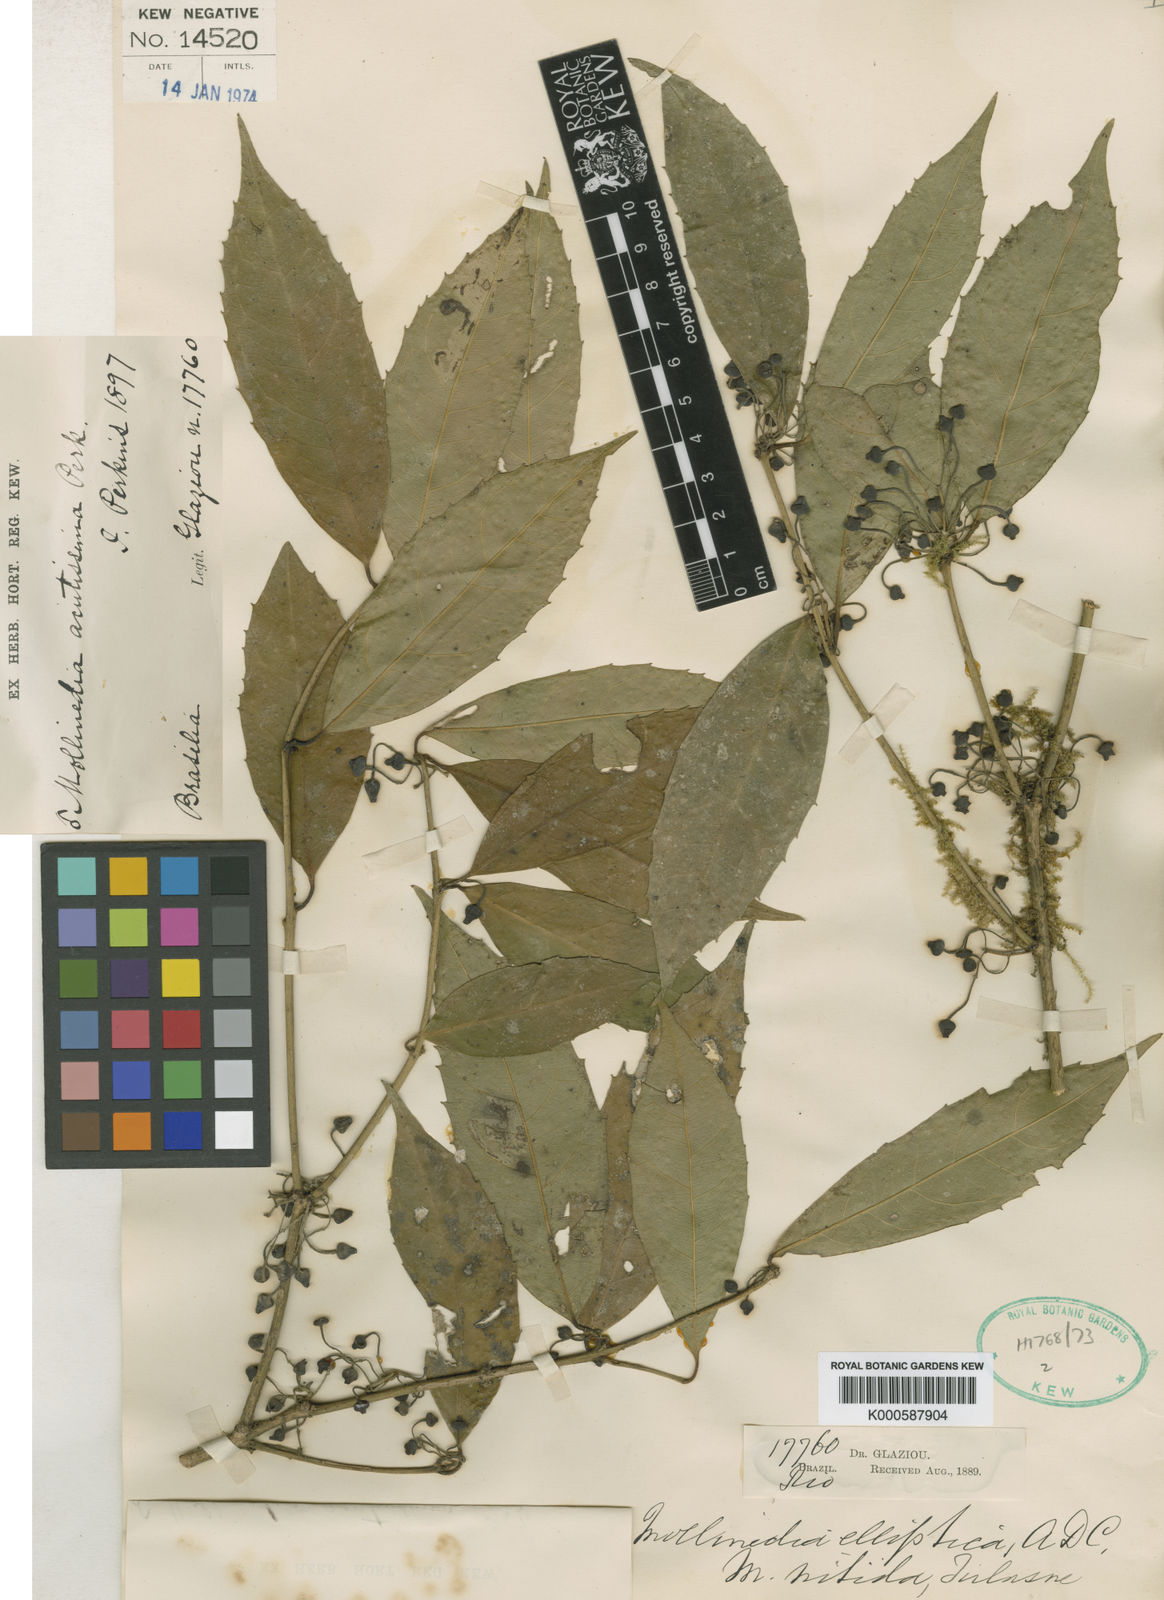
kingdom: Plantae
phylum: Tracheophyta
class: Magnoliopsida
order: Laurales
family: Monimiaceae
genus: Mollinedia
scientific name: Mollinedia elliptica
